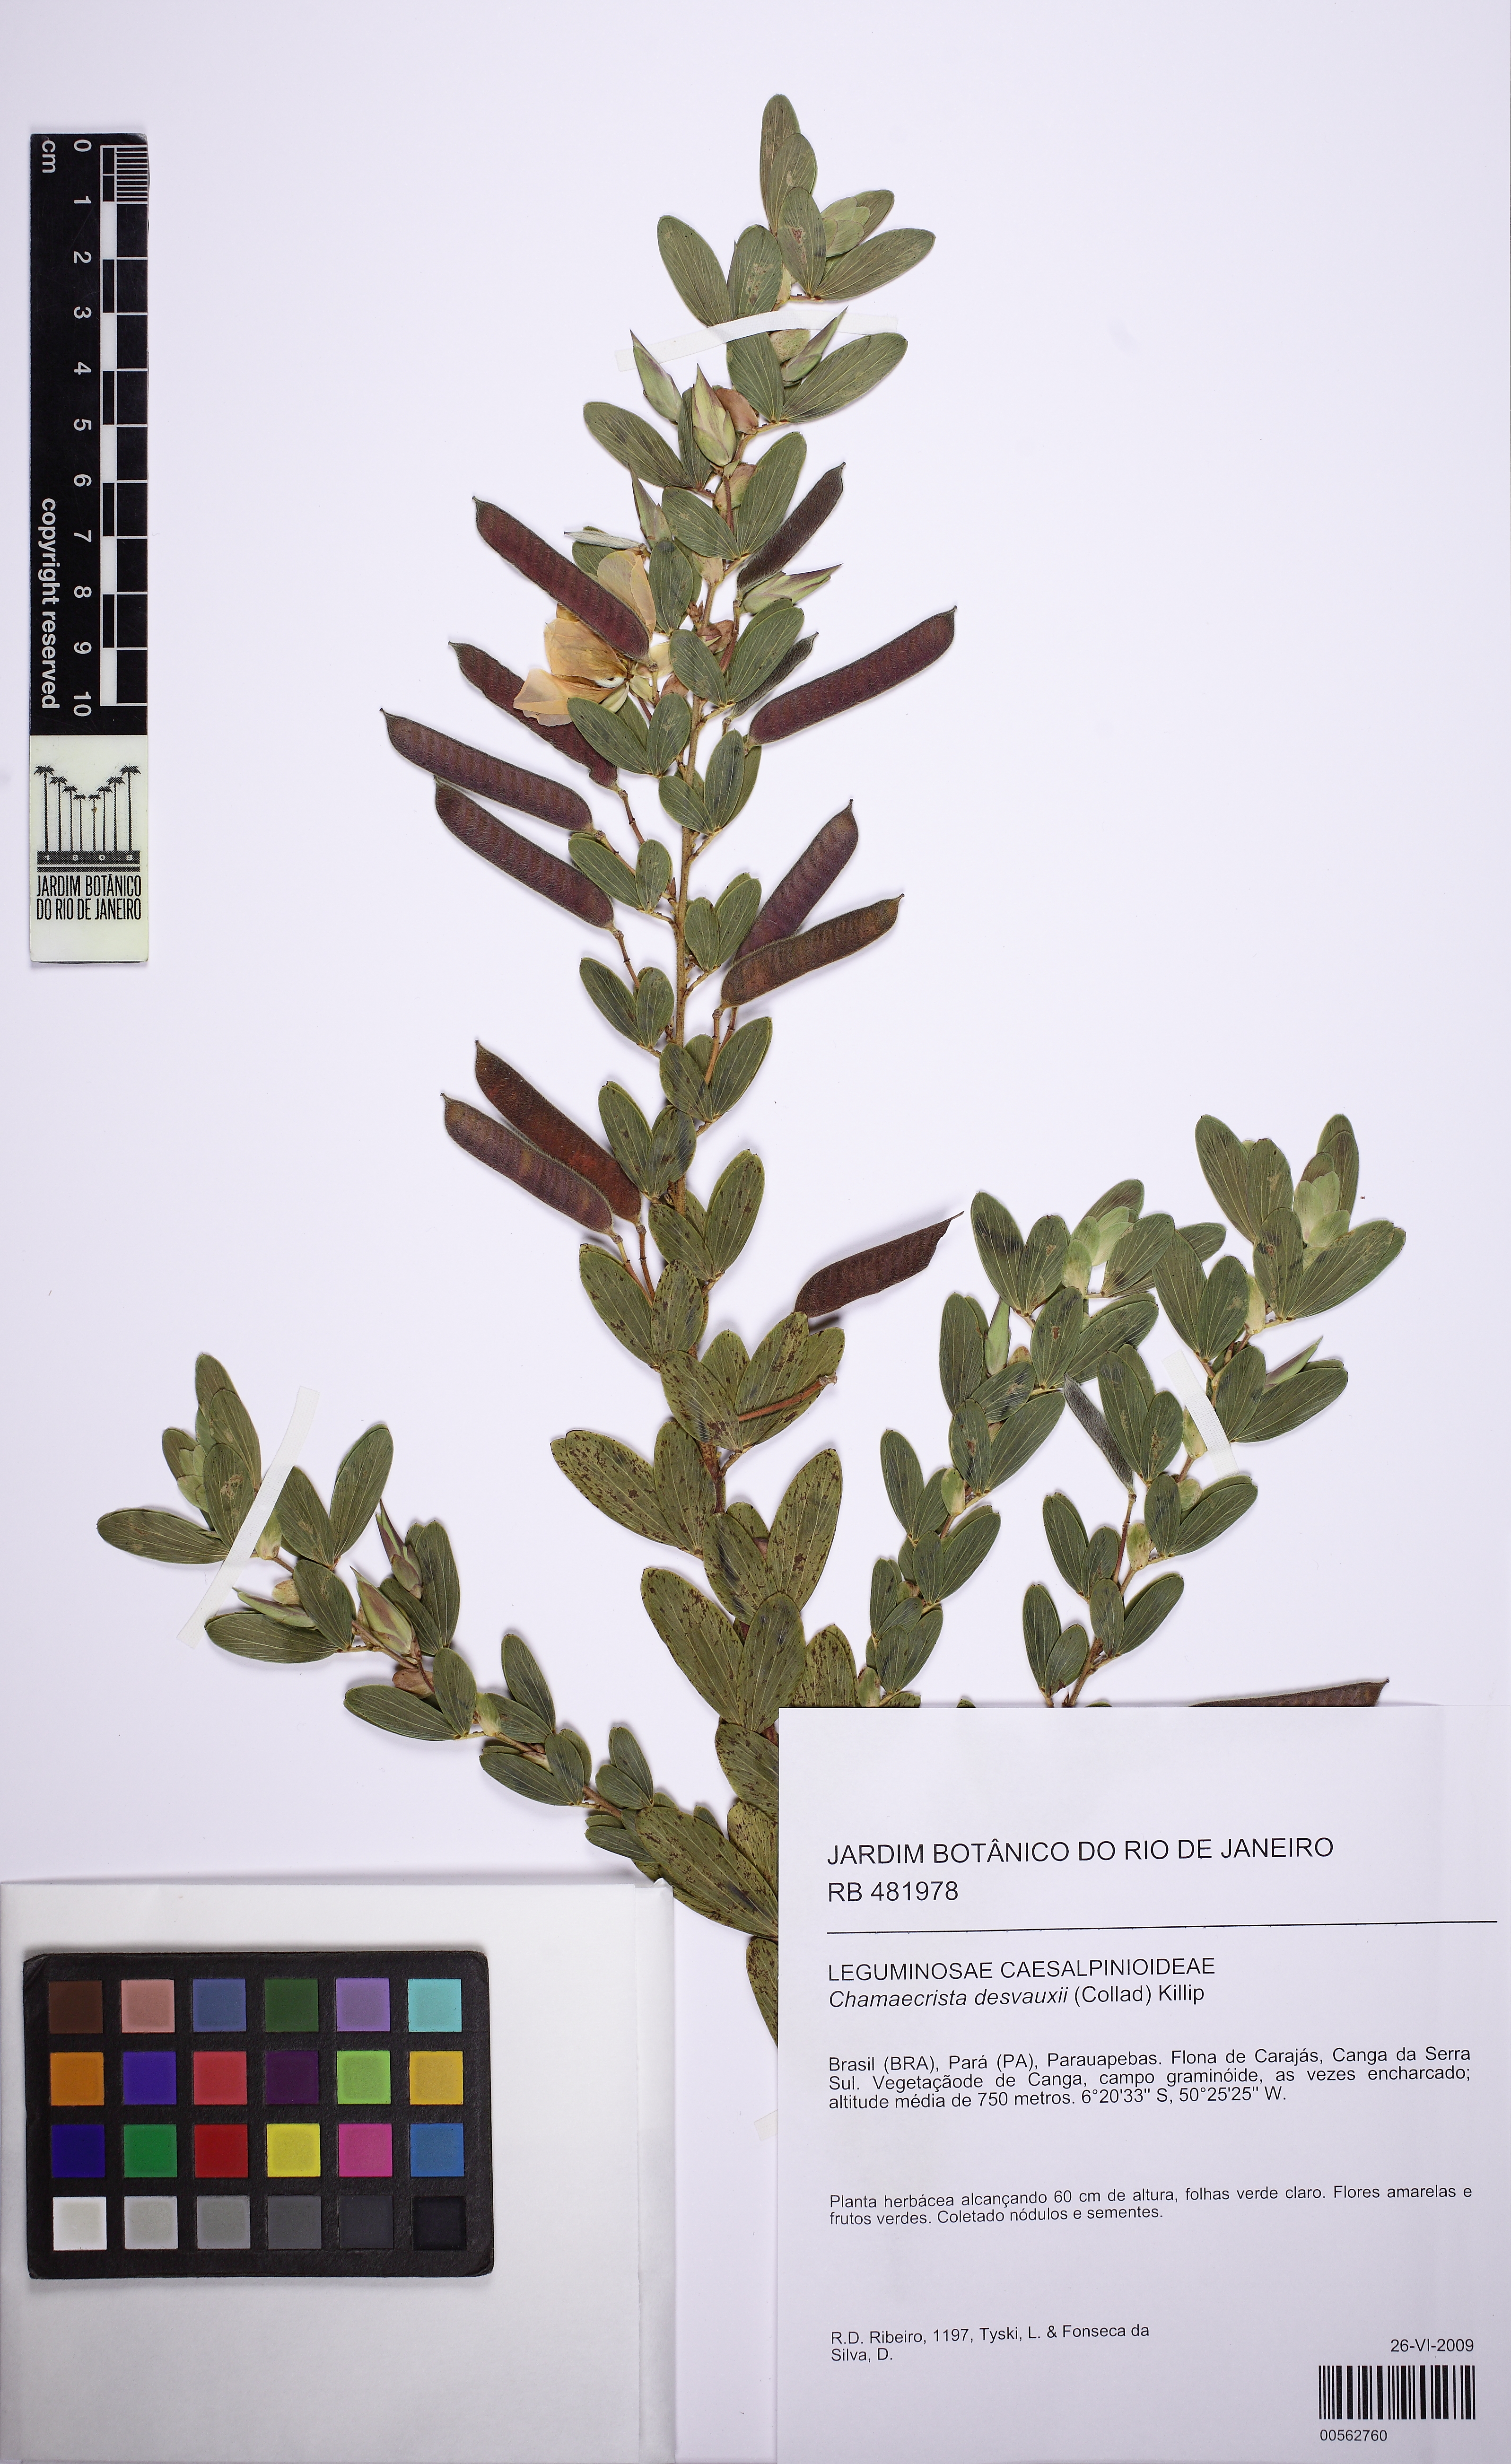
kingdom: Plantae
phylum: Tracheophyta
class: Magnoliopsida
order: Fabales
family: Fabaceae
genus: Chamaecrista
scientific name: Chamaecrista desvauxii
